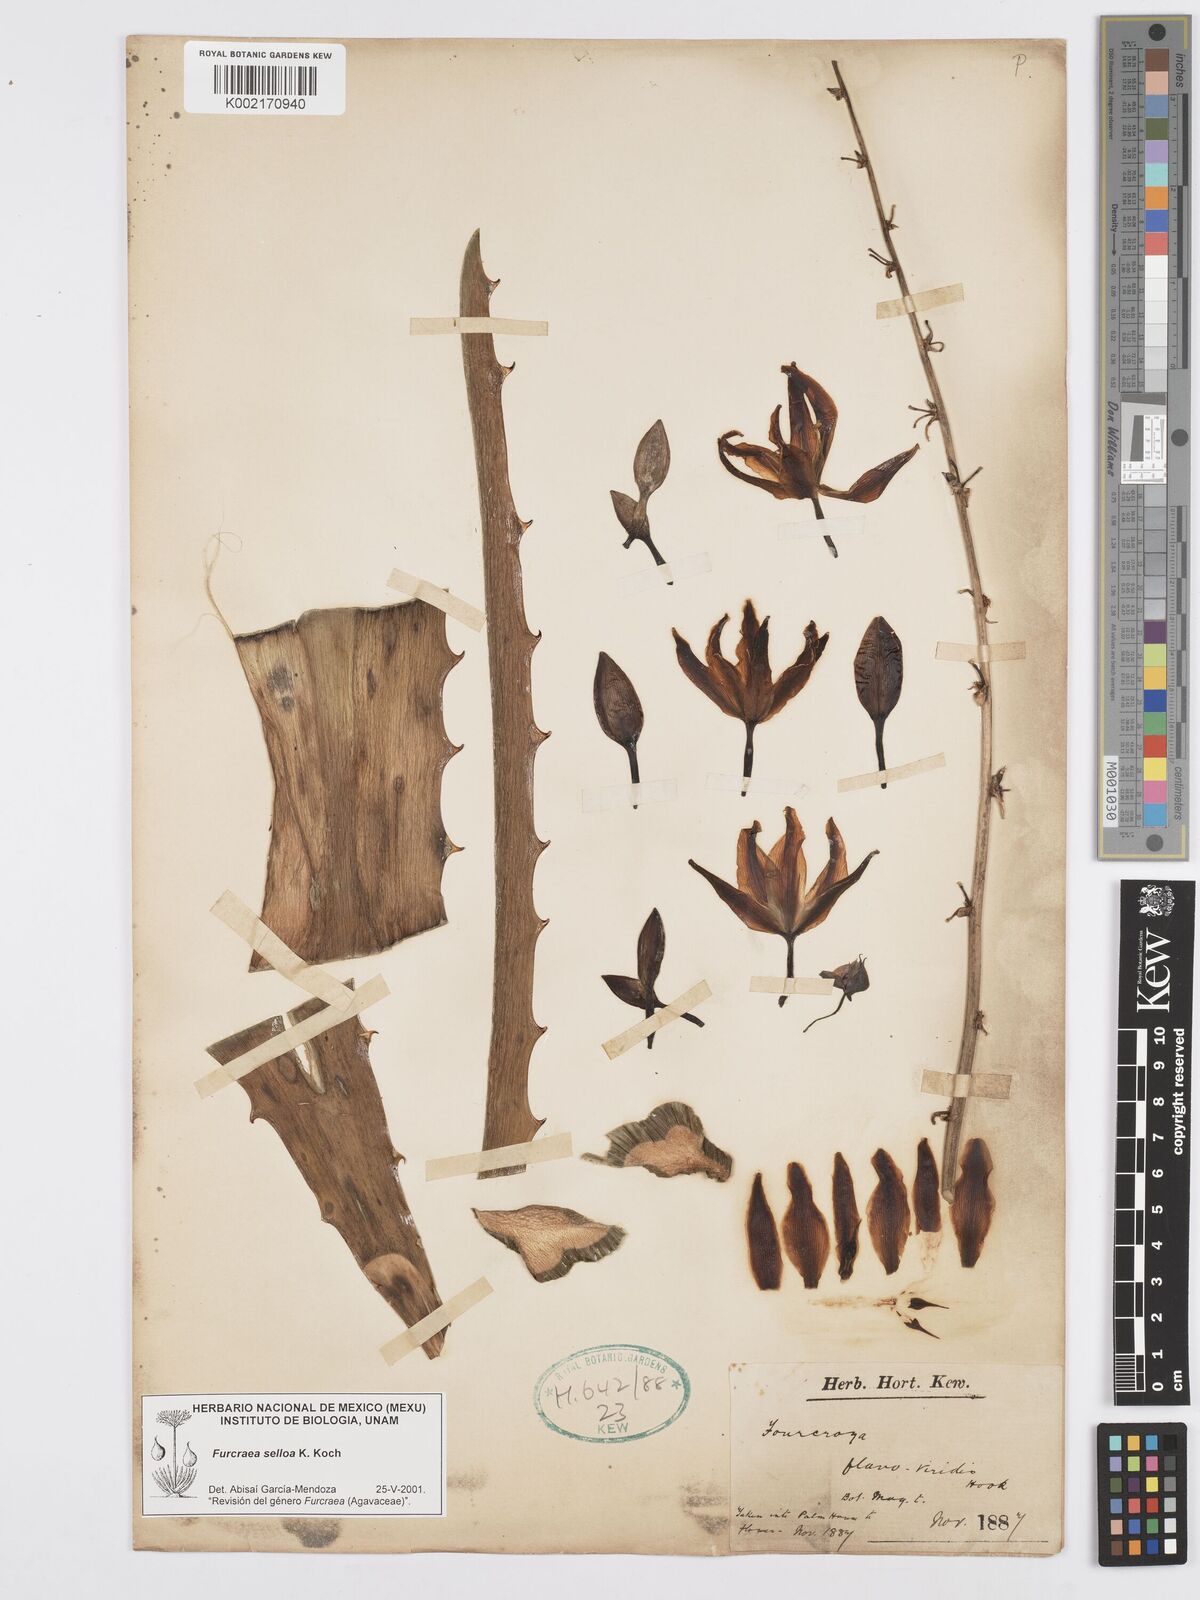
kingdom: Plantae
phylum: Tracheophyta
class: Liliopsida
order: Asparagales
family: Asparagaceae
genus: Furcraea
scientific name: Furcraea selloana
